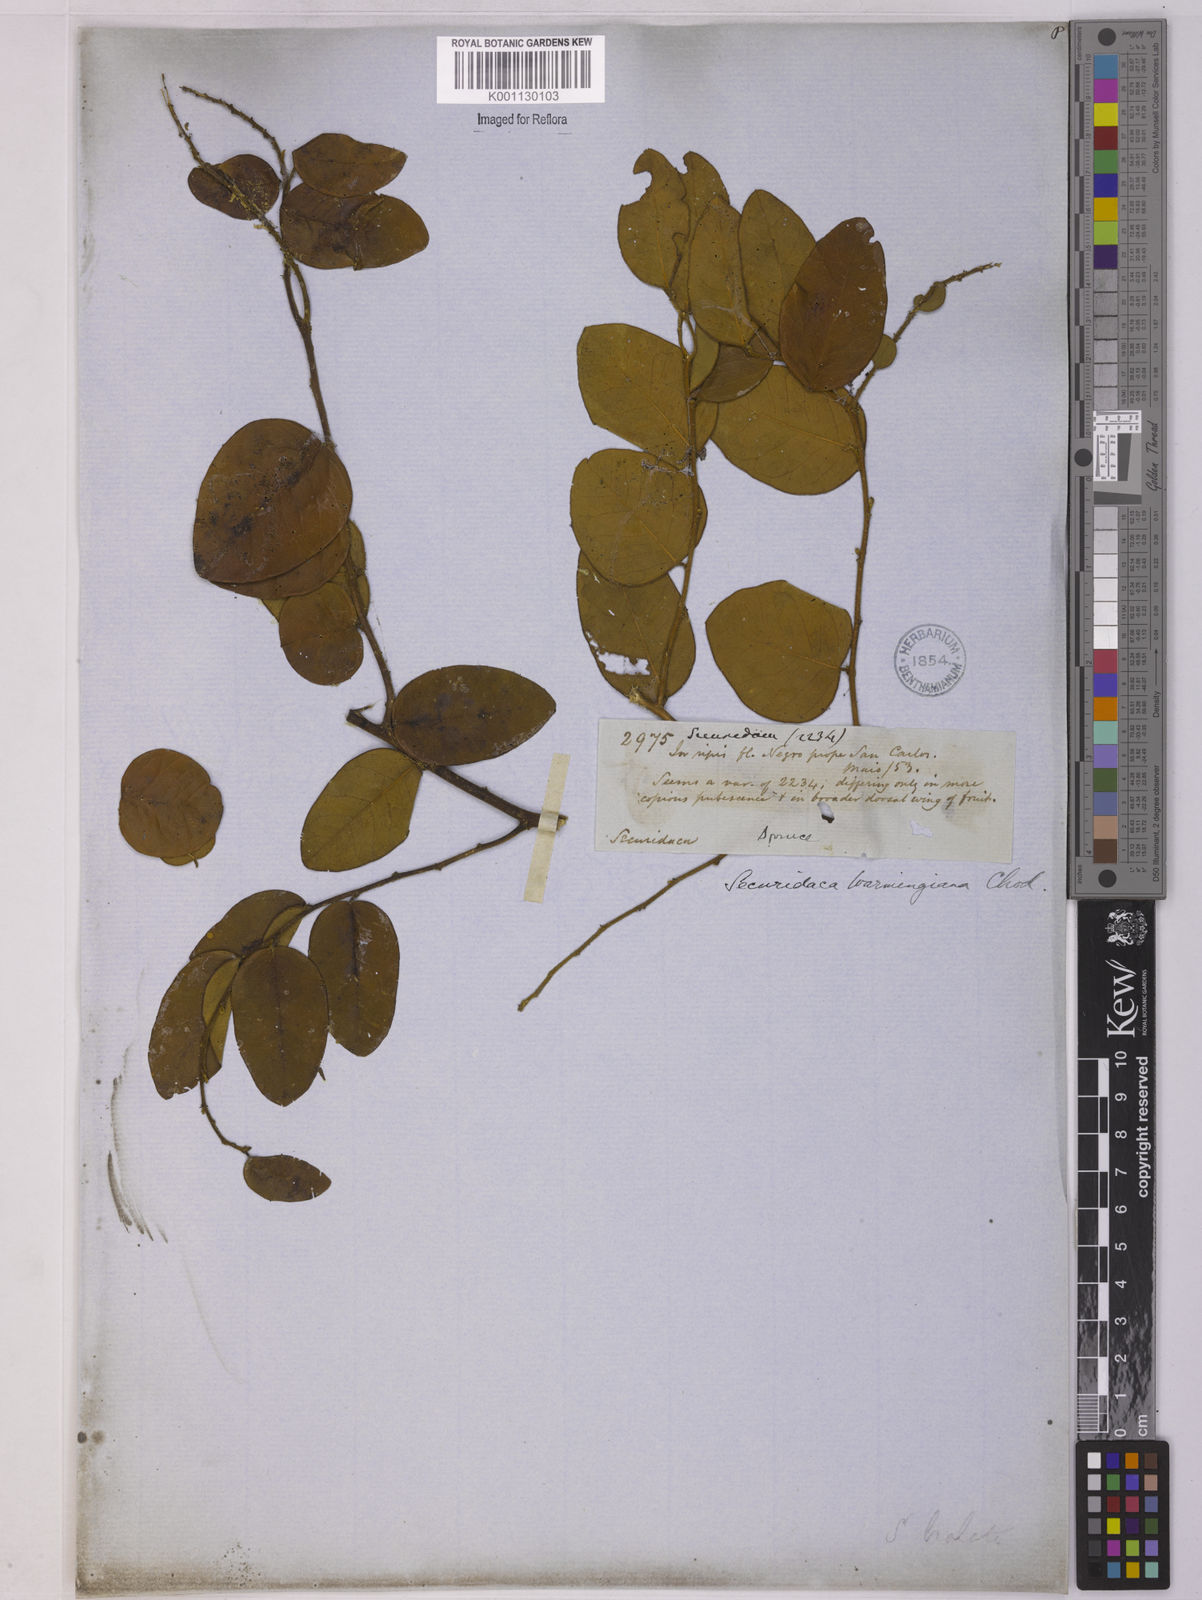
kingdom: Plantae
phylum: Tracheophyta
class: Magnoliopsida
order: Fabales
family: Polygalaceae
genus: Securidaca
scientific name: Securidaca warmingiana
